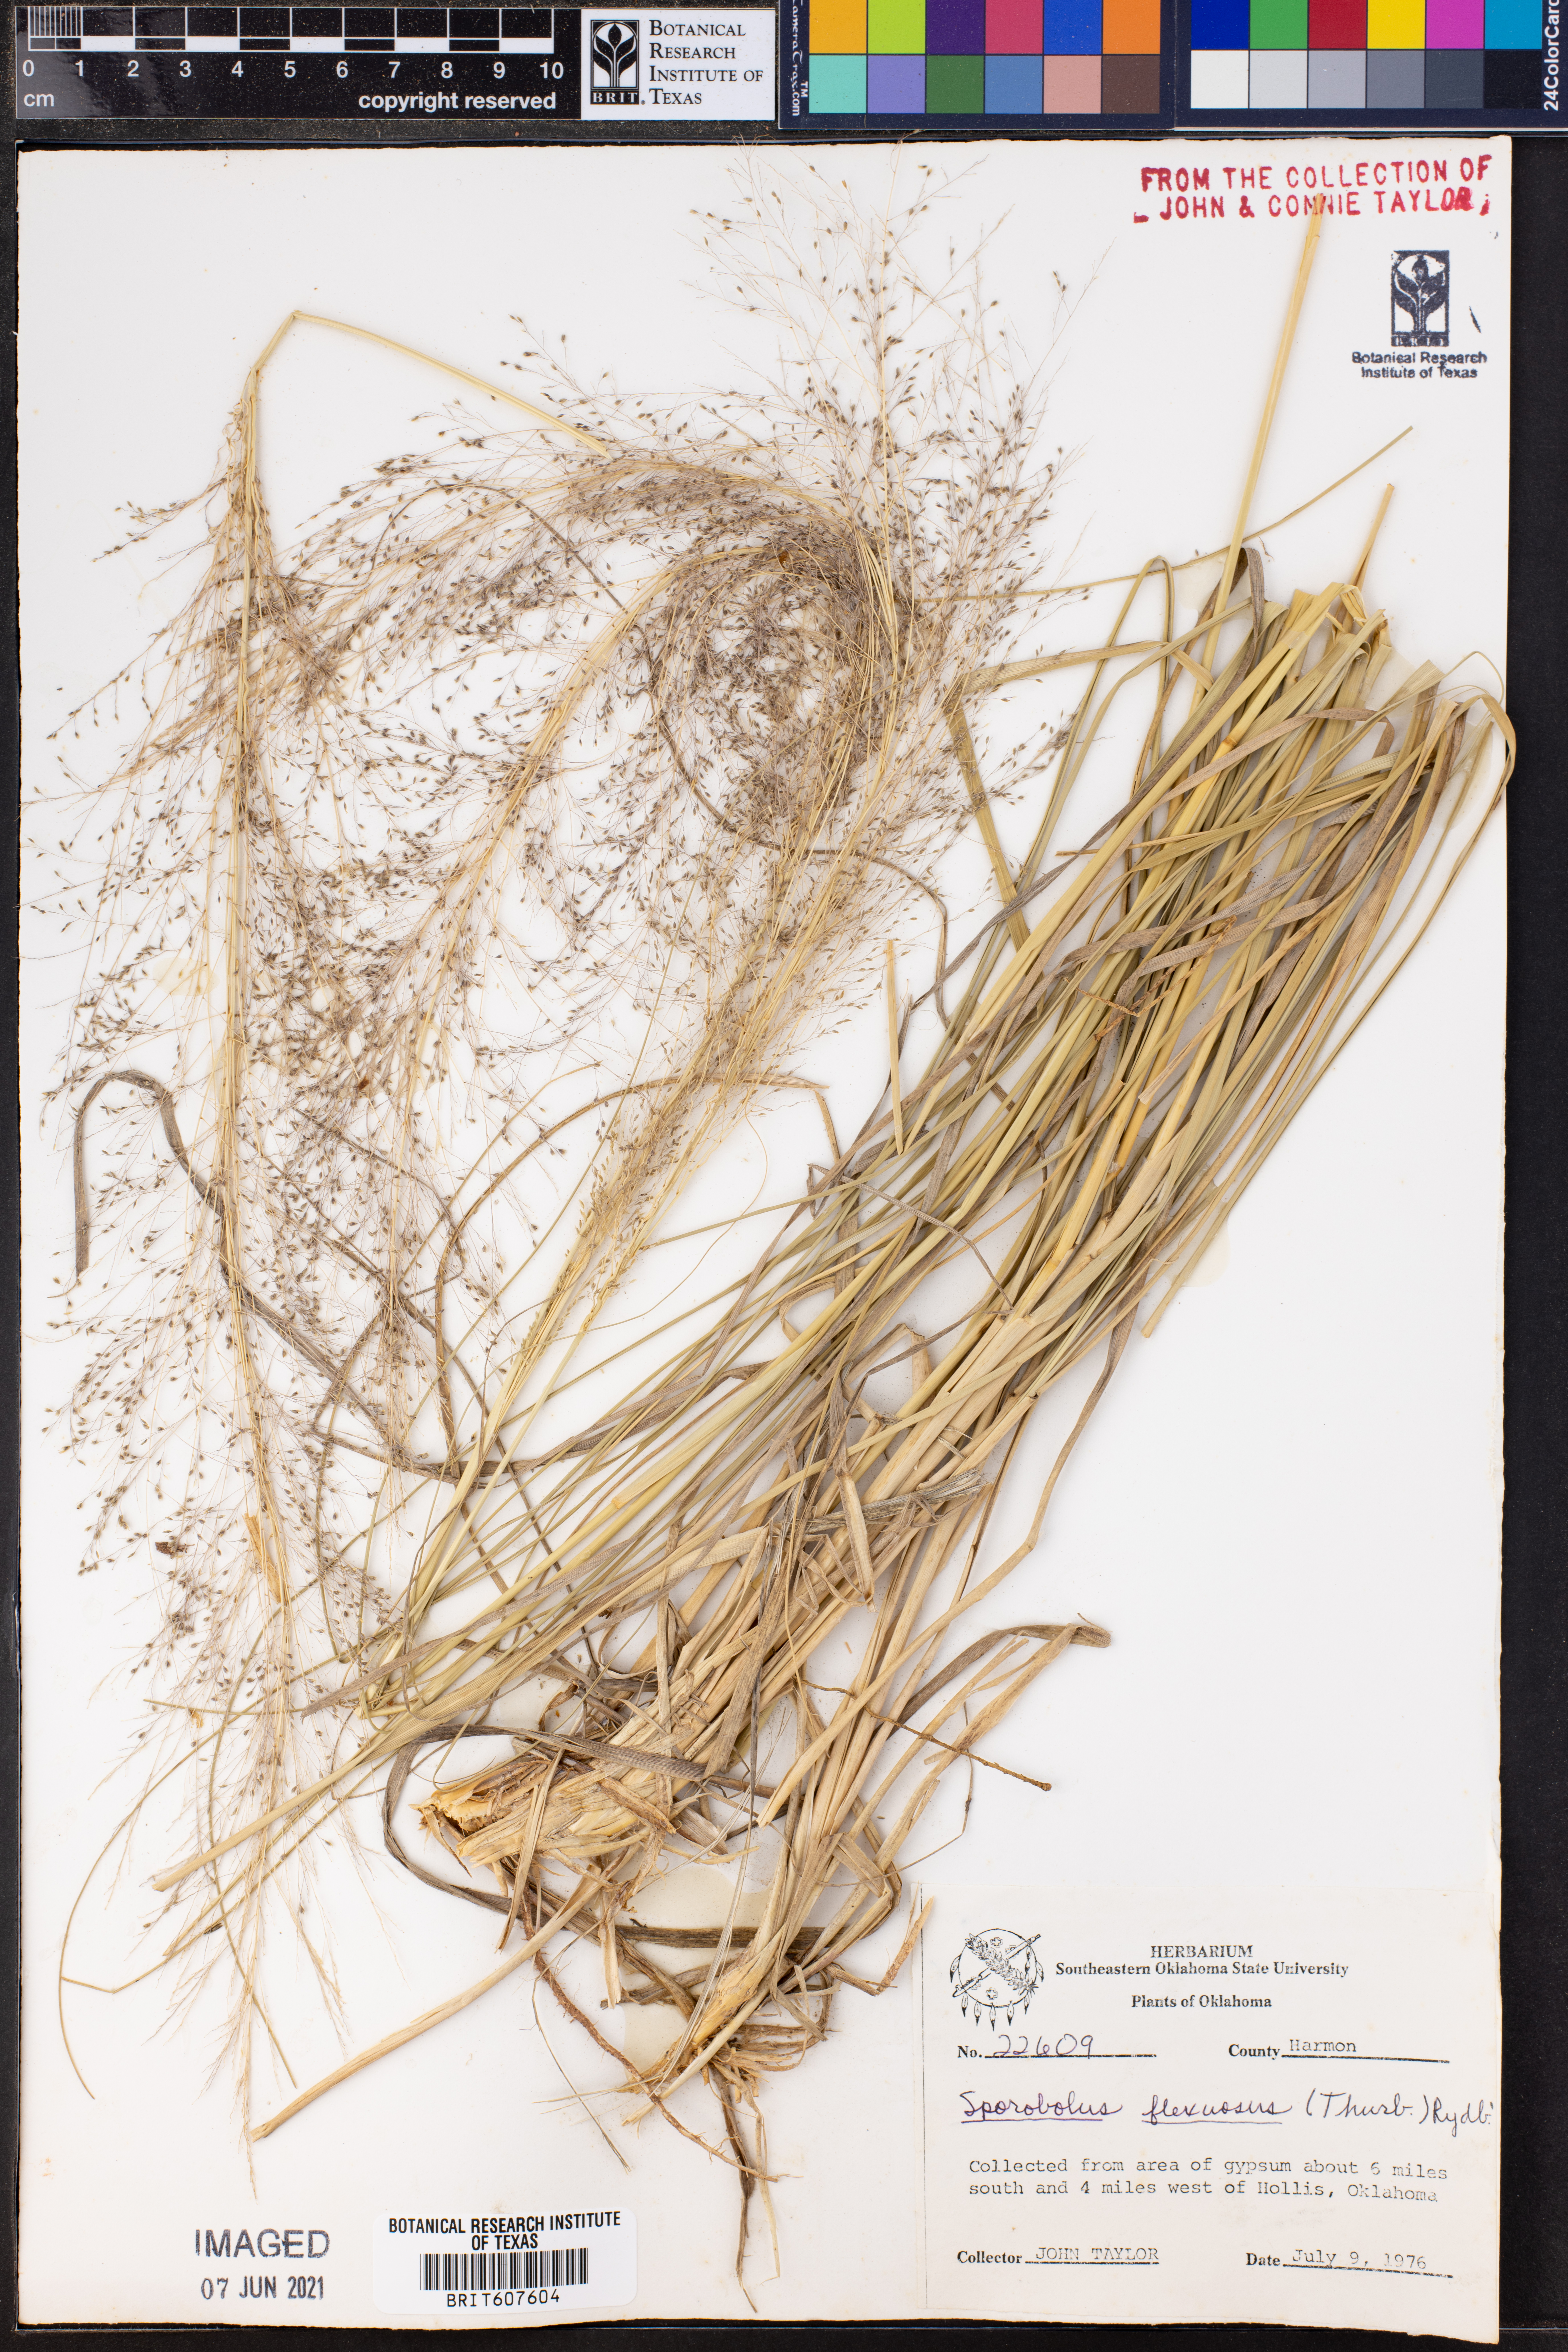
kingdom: Plantae
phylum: Tracheophyta
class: Liliopsida
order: Poales
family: Poaceae
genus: Sporobolus
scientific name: Sporobolus flexuosus
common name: Mesa dropseed
